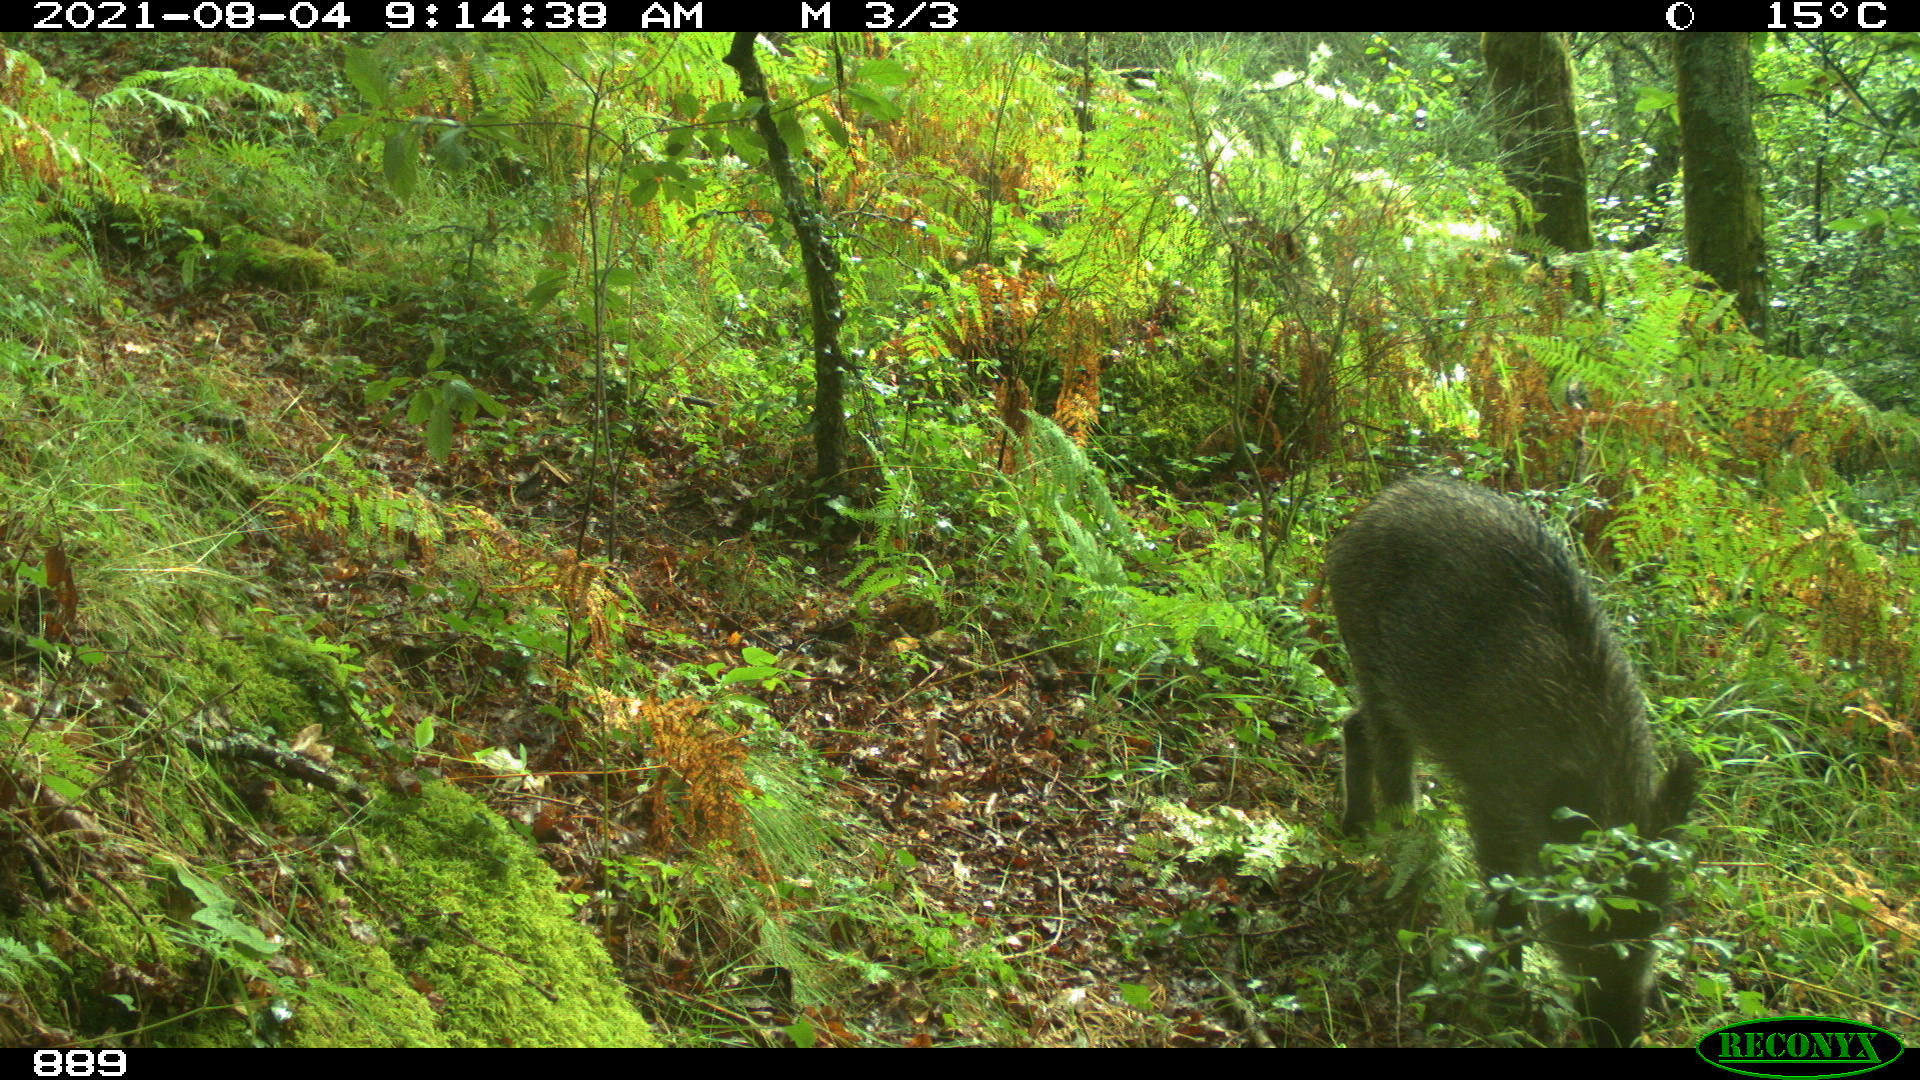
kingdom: Animalia
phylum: Chordata
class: Mammalia
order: Artiodactyla
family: Suidae
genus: Sus
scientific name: Sus scrofa
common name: Wild boar
